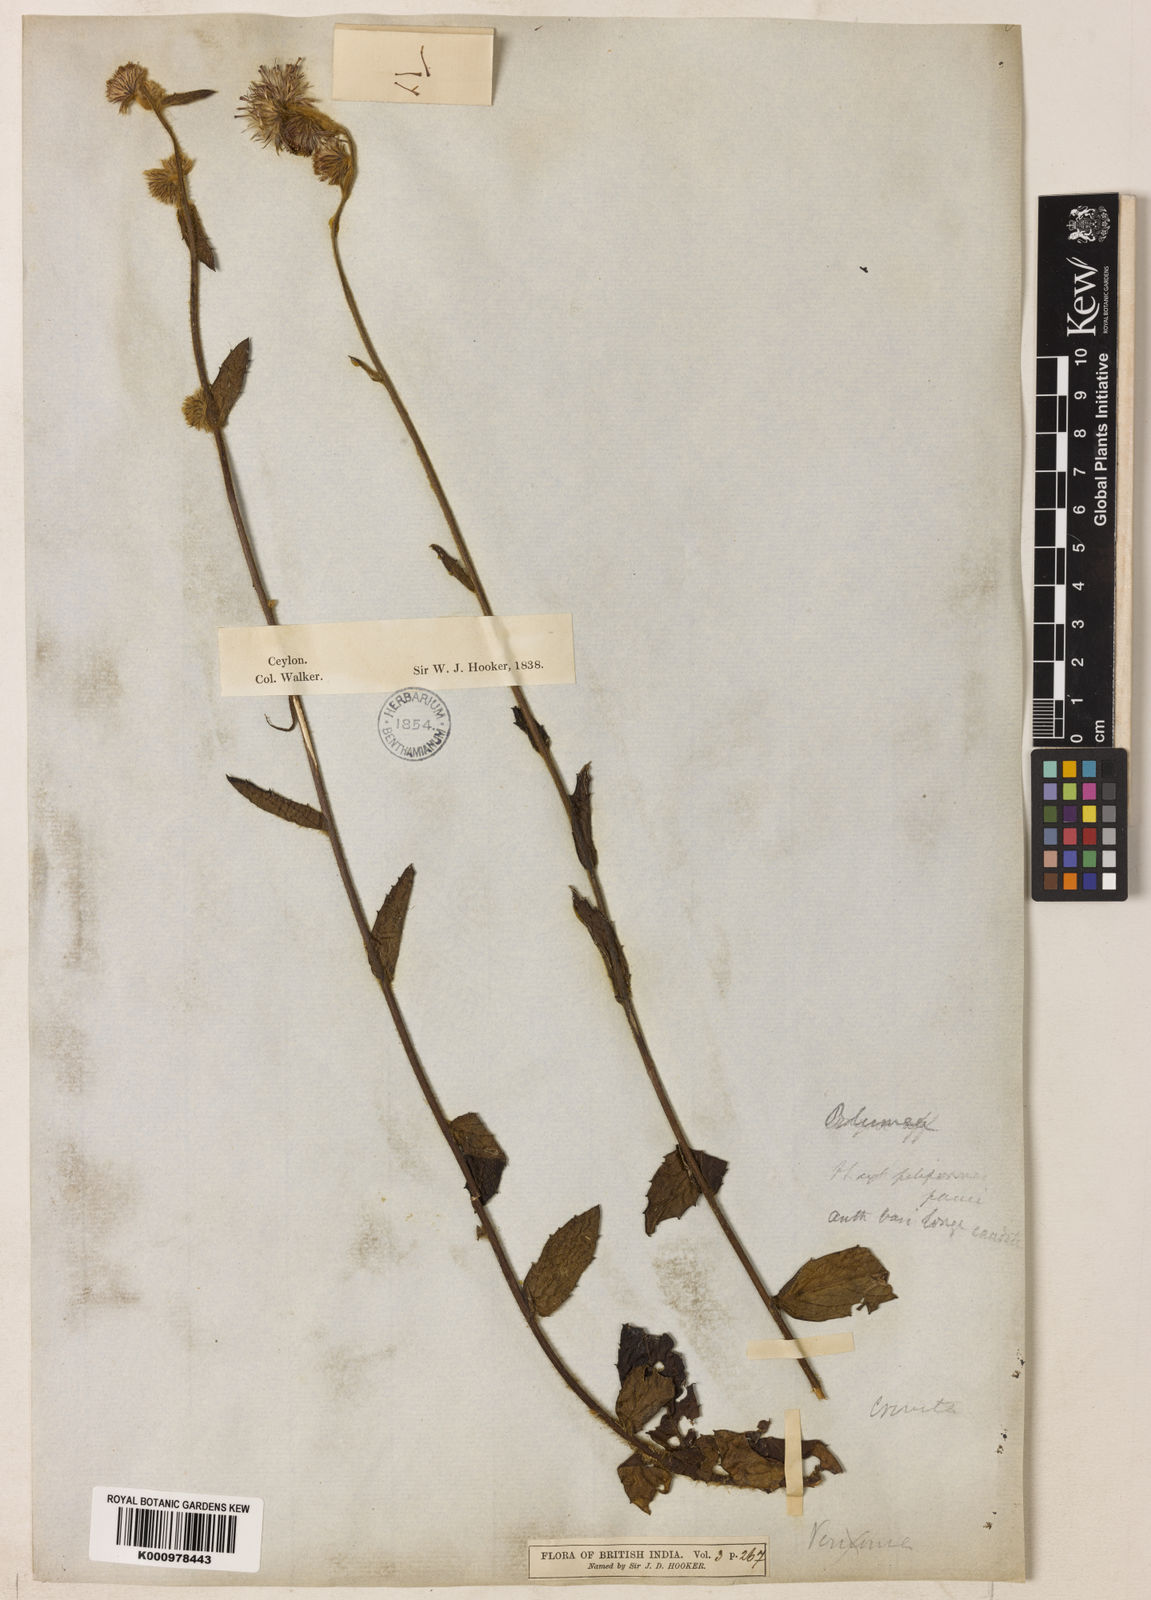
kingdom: Plantae
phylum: Tracheophyta
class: Magnoliopsida
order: Asterales
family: Asteraceae
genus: Blumea
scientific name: Blumea crinita
